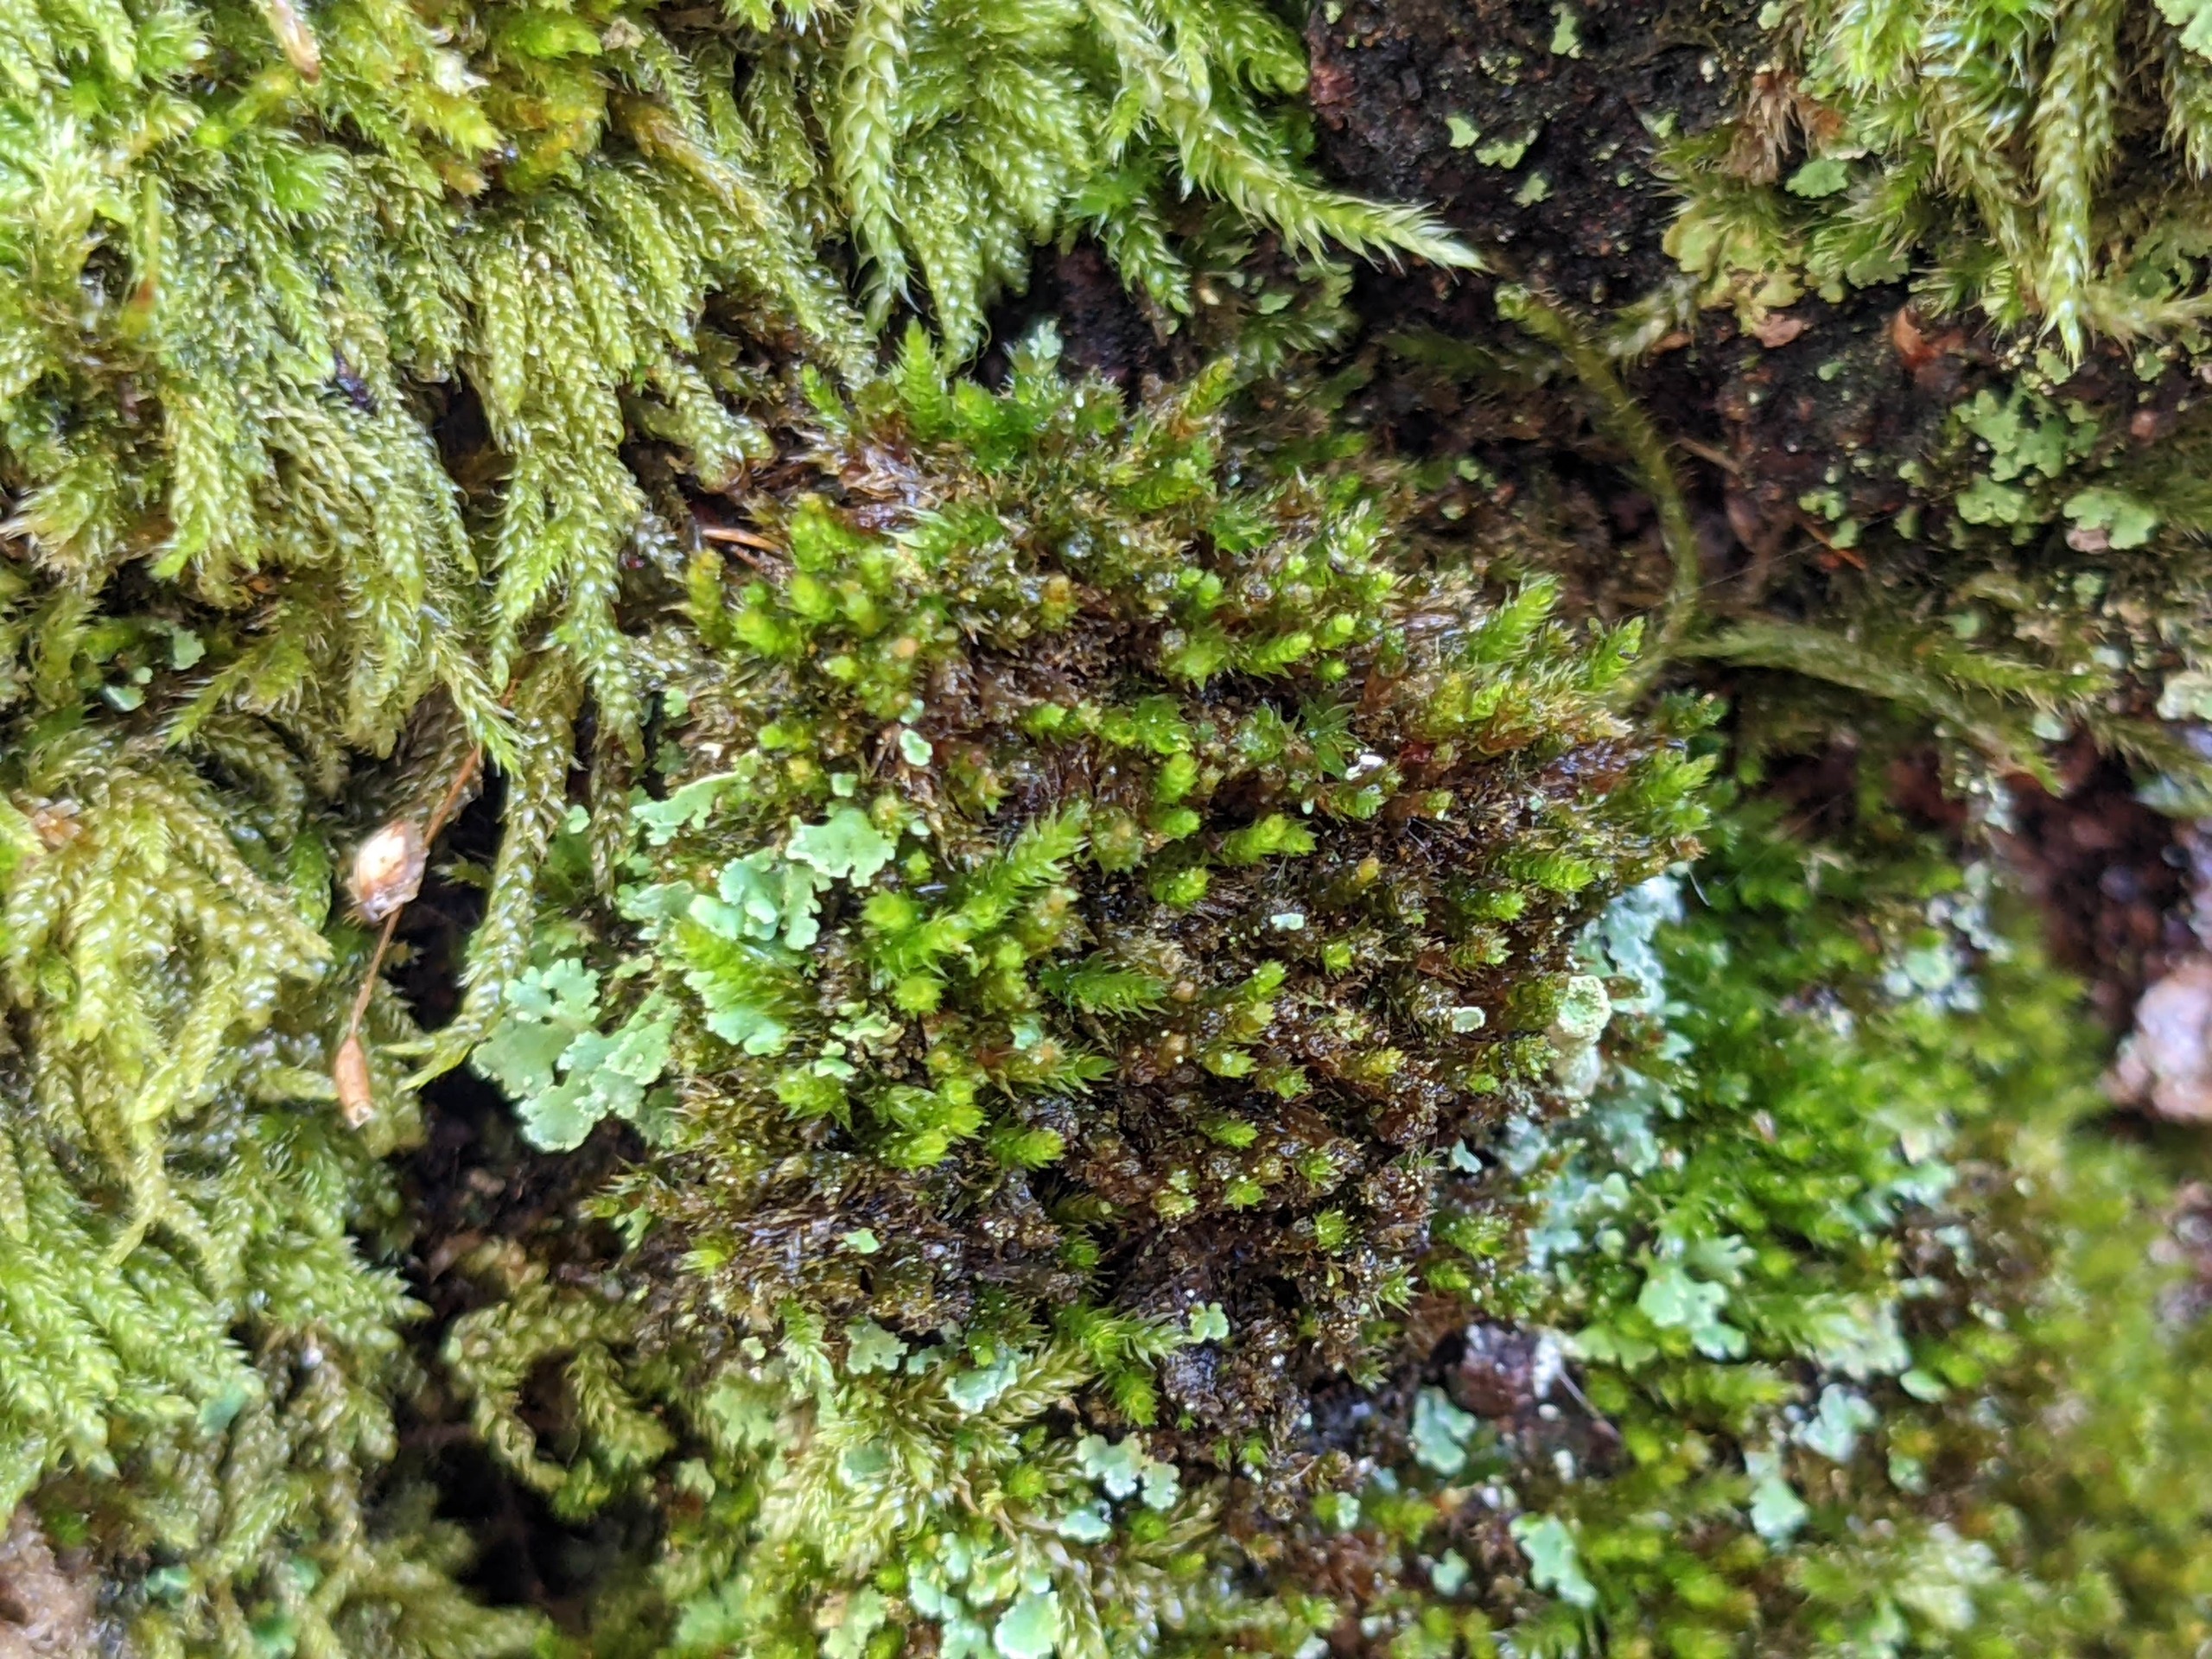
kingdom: Plantae
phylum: Bryophyta
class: Bryopsida
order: Hypnales
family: Pylaisiadelphaceae
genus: Platygyrium
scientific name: Platygyrium repens
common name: Mørk yngleknop
